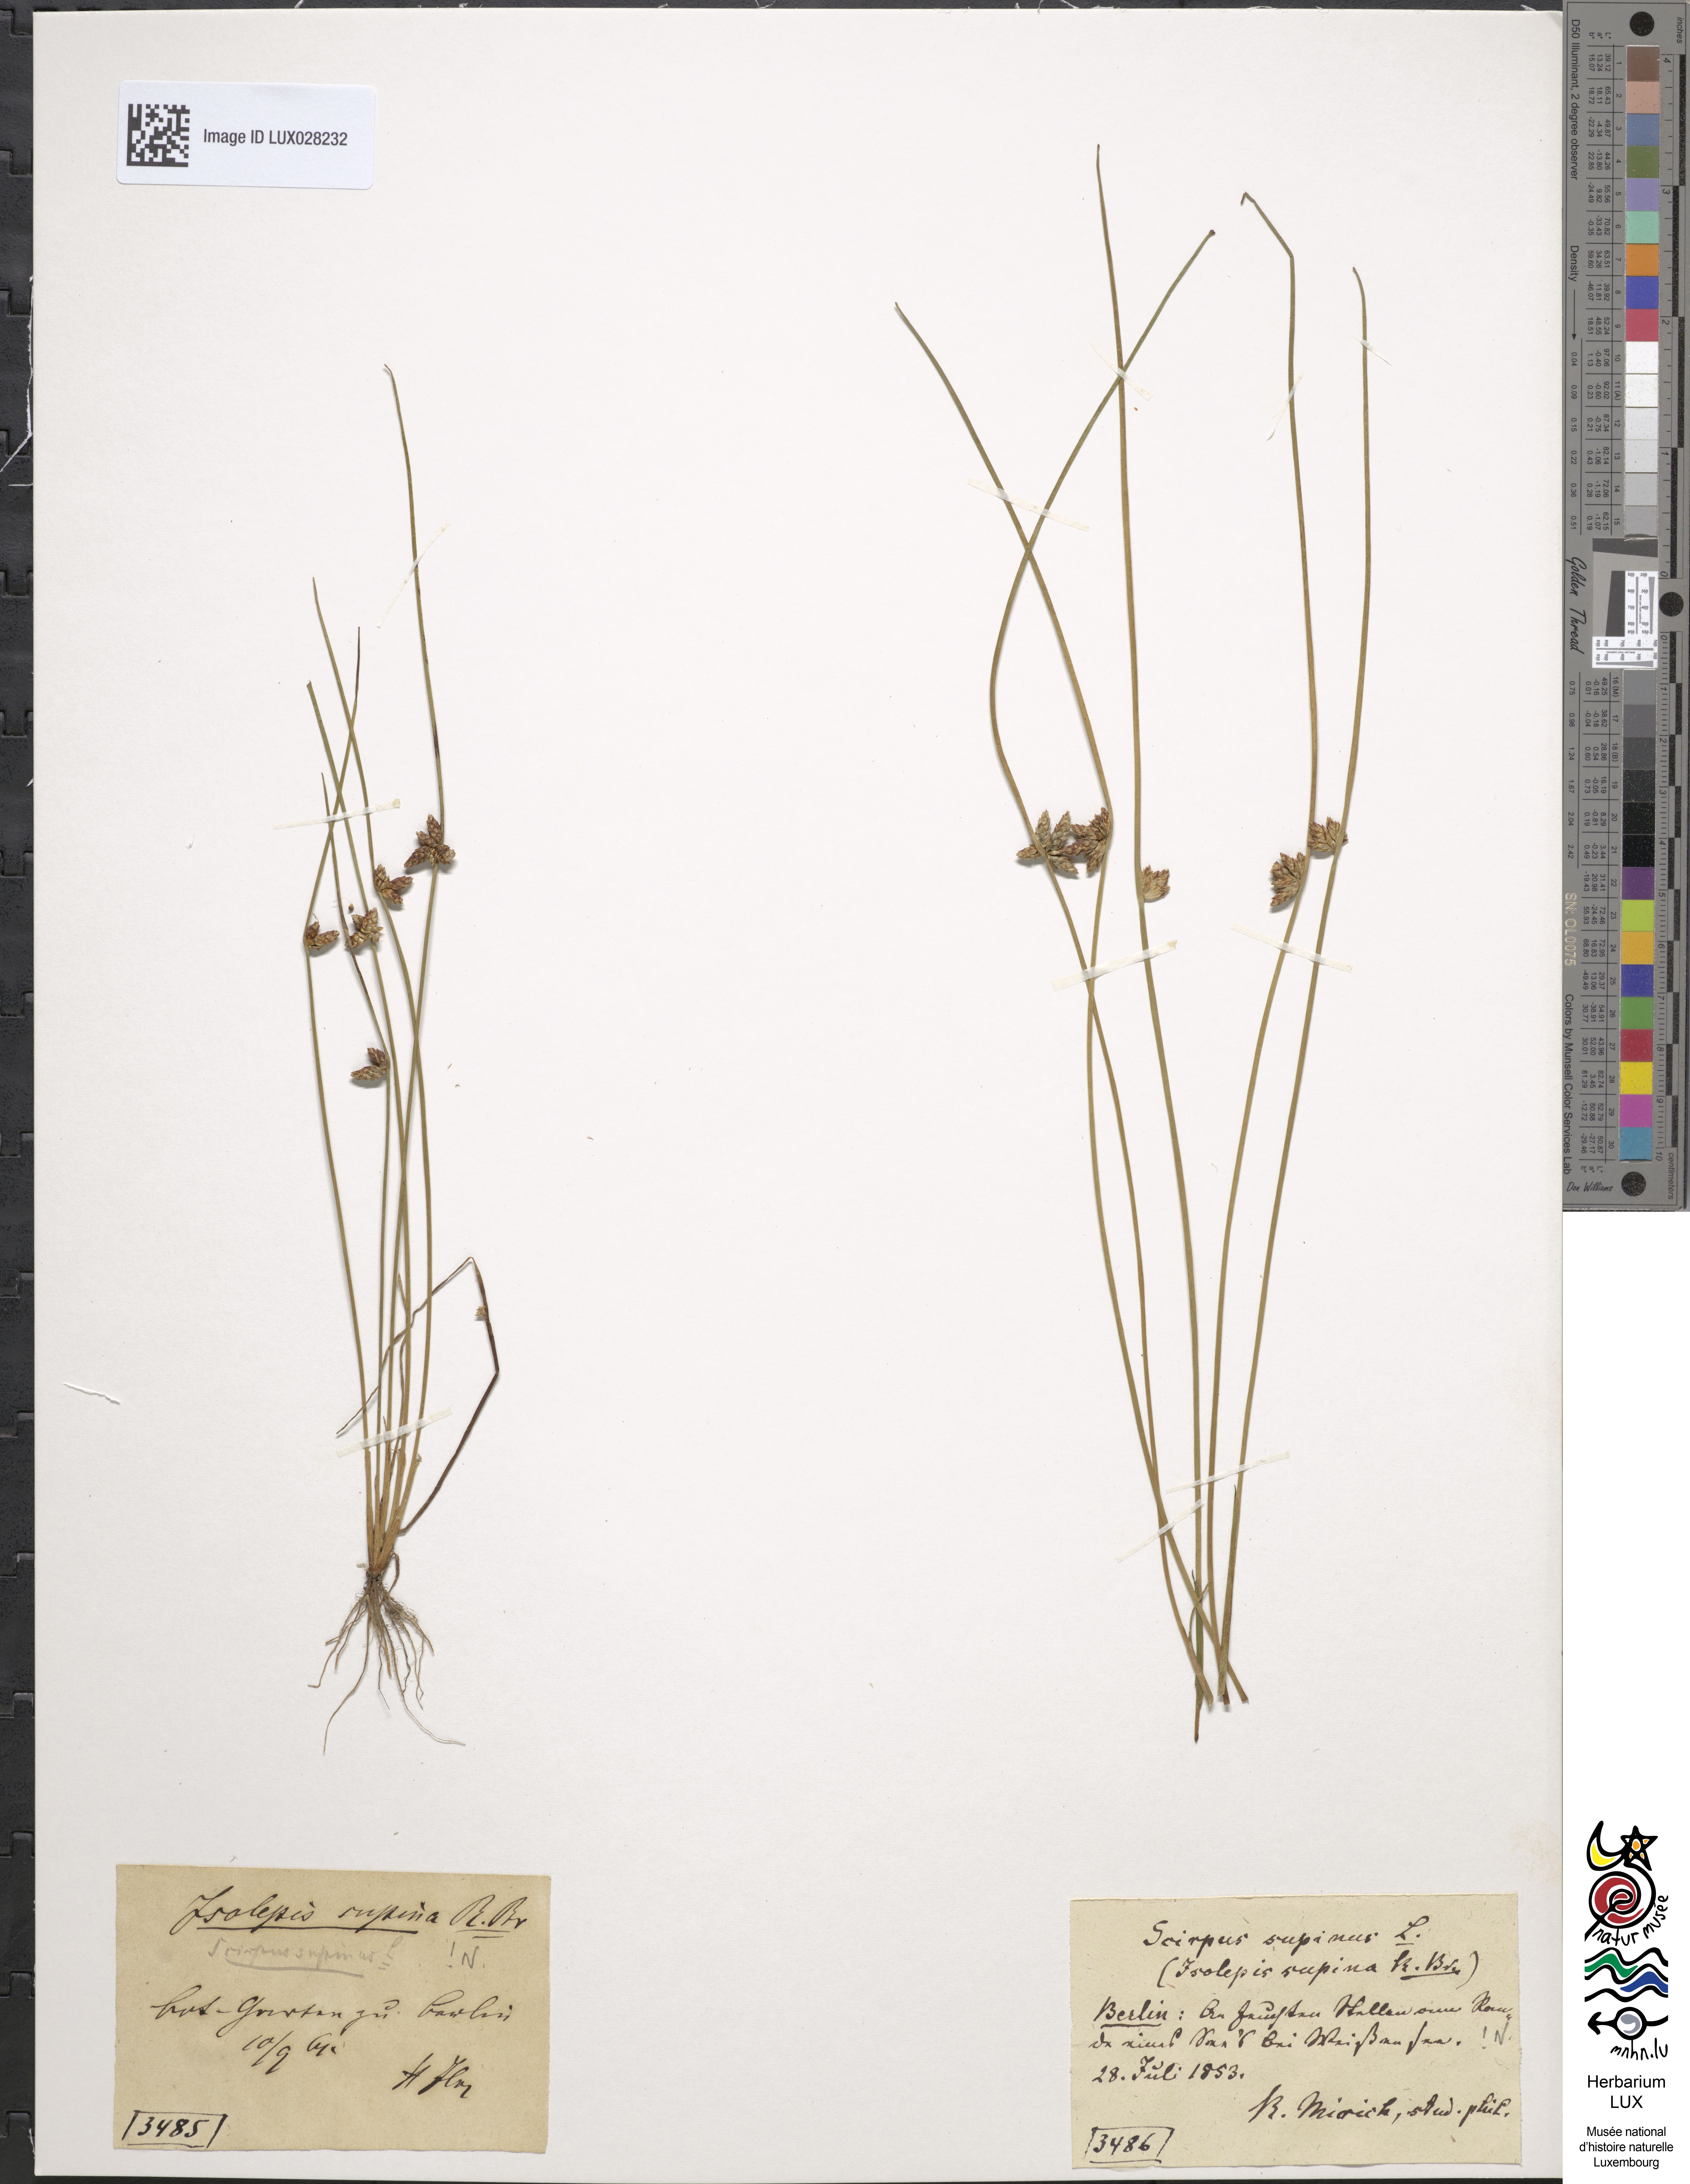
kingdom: Plantae
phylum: Tracheophyta
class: Liliopsida
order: Poales
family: Cyperaceae
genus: Schoenoplectiella
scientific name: Schoenoplectiella supina
